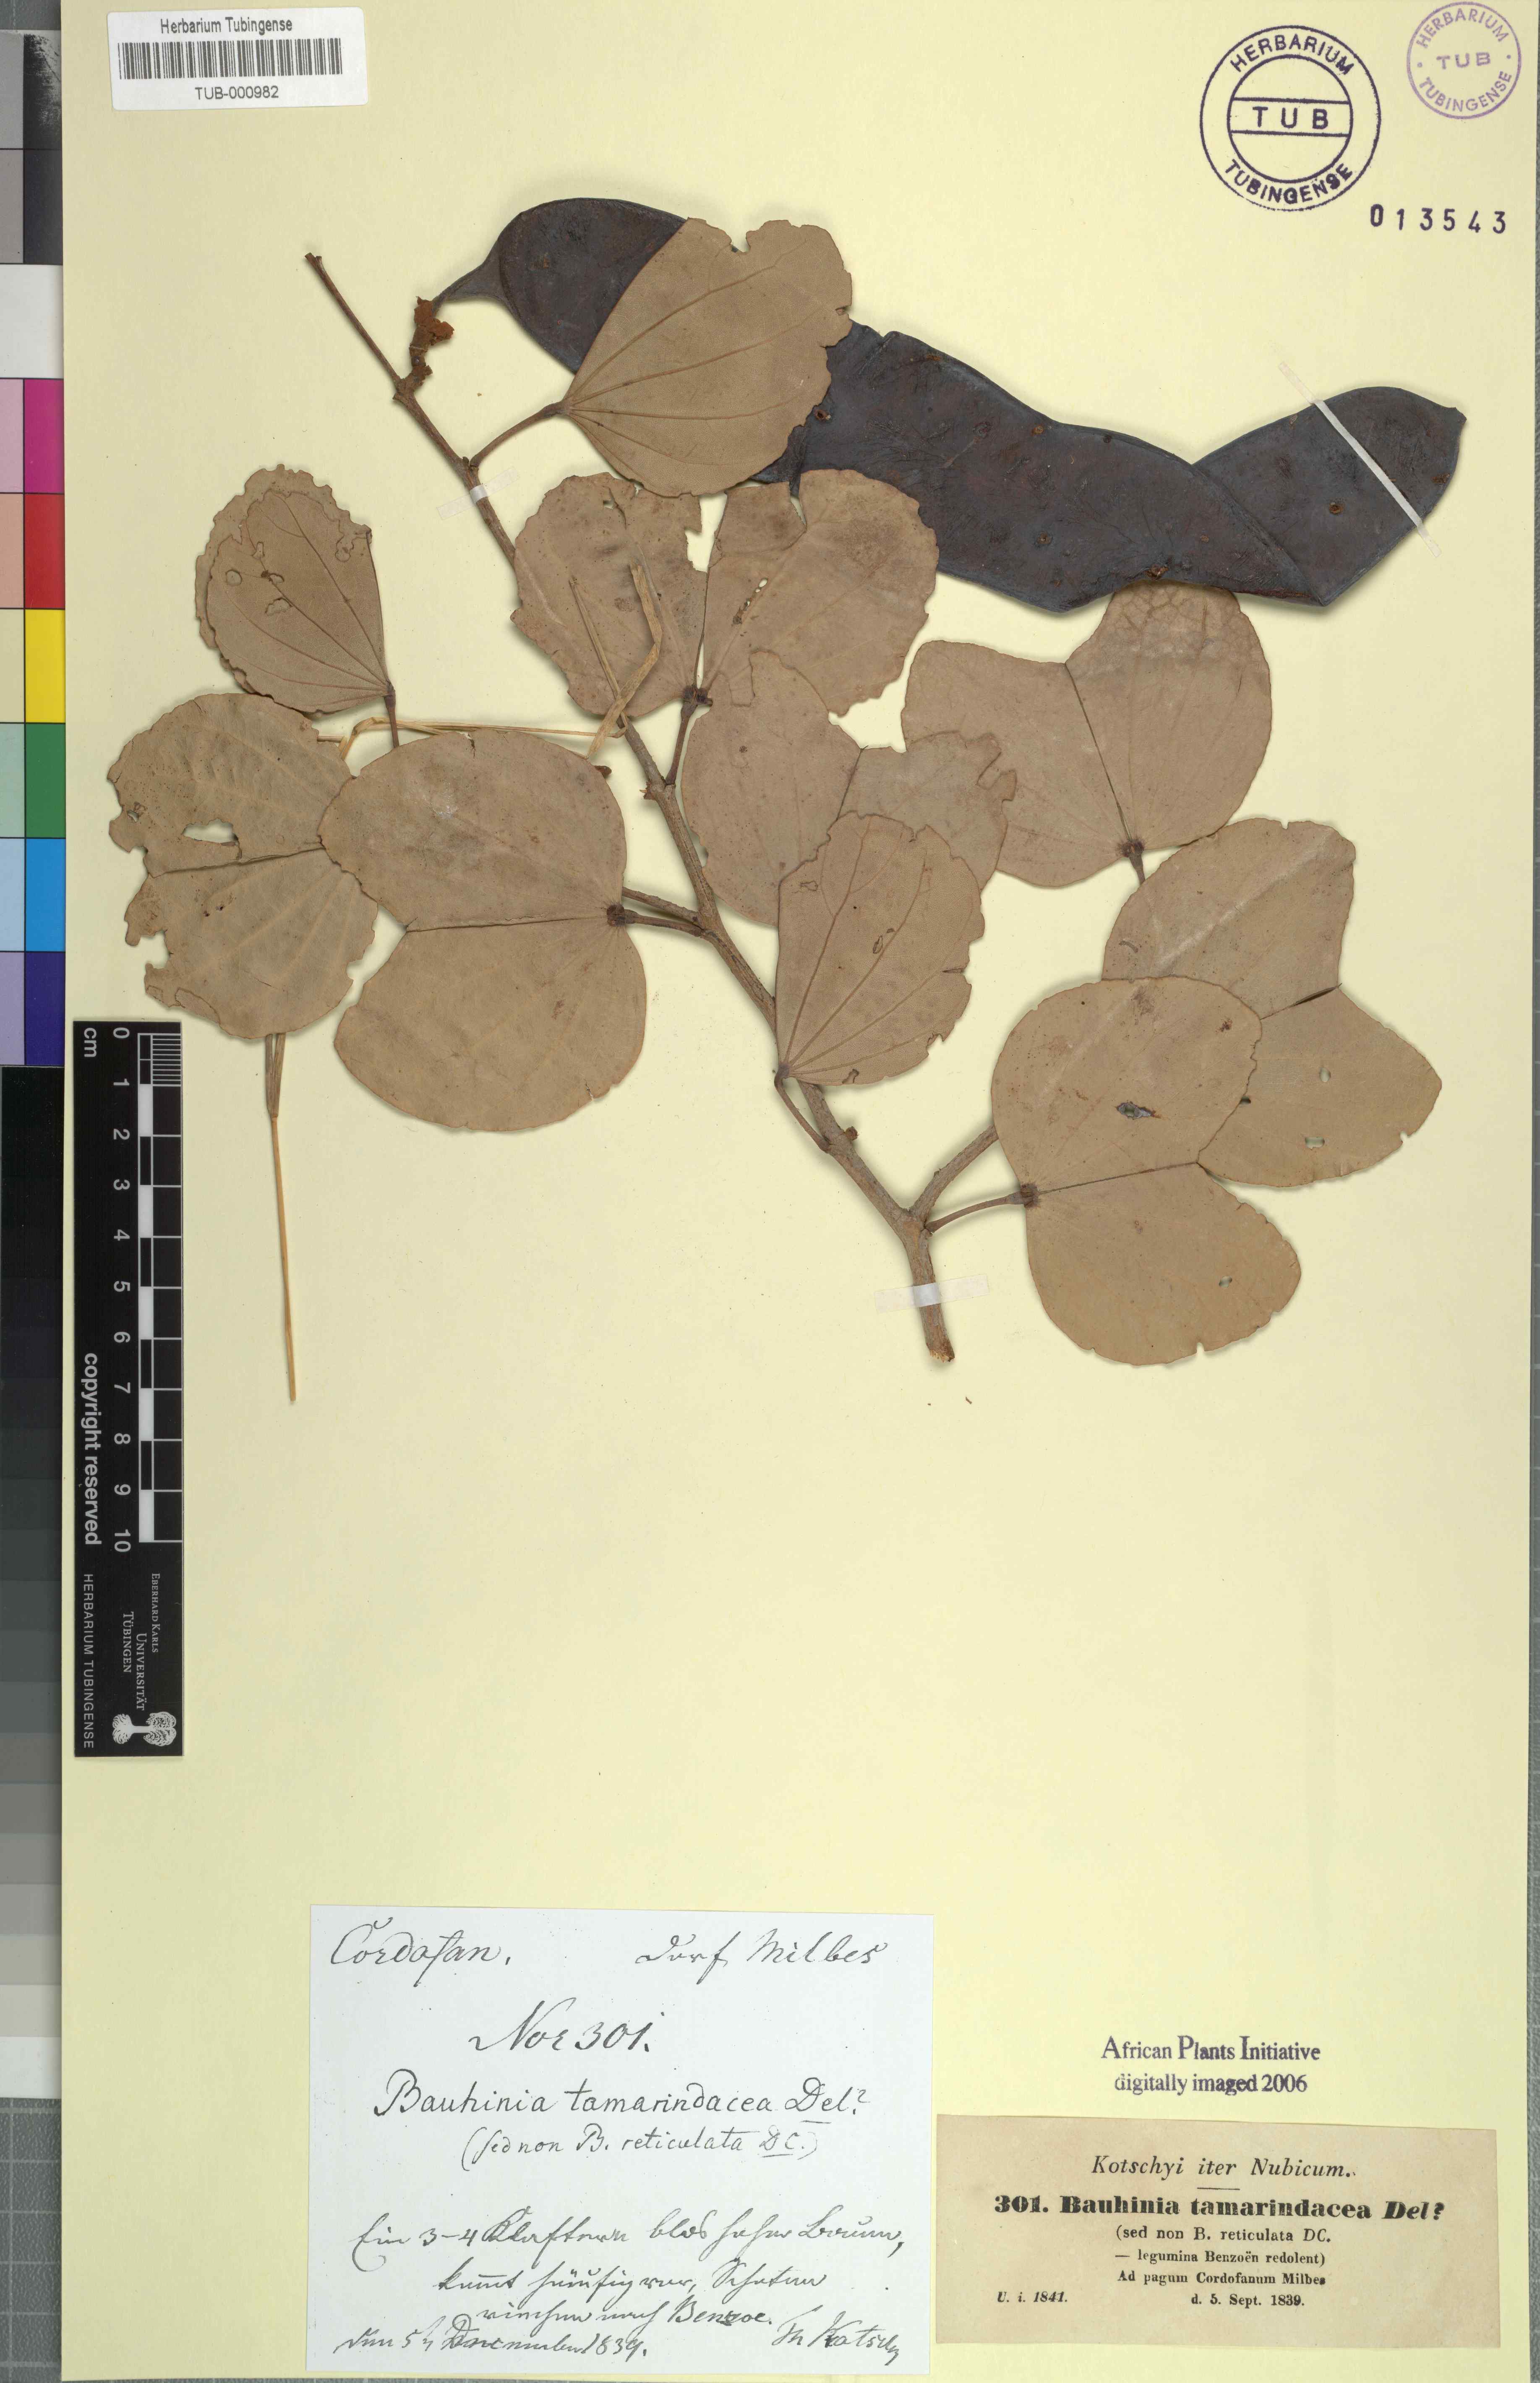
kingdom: Plantae
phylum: Tracheophyta
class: Magnoliopsida
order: Fabales
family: Fabaceae
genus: Piliostigma
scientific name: Piliostigma reticulatum
